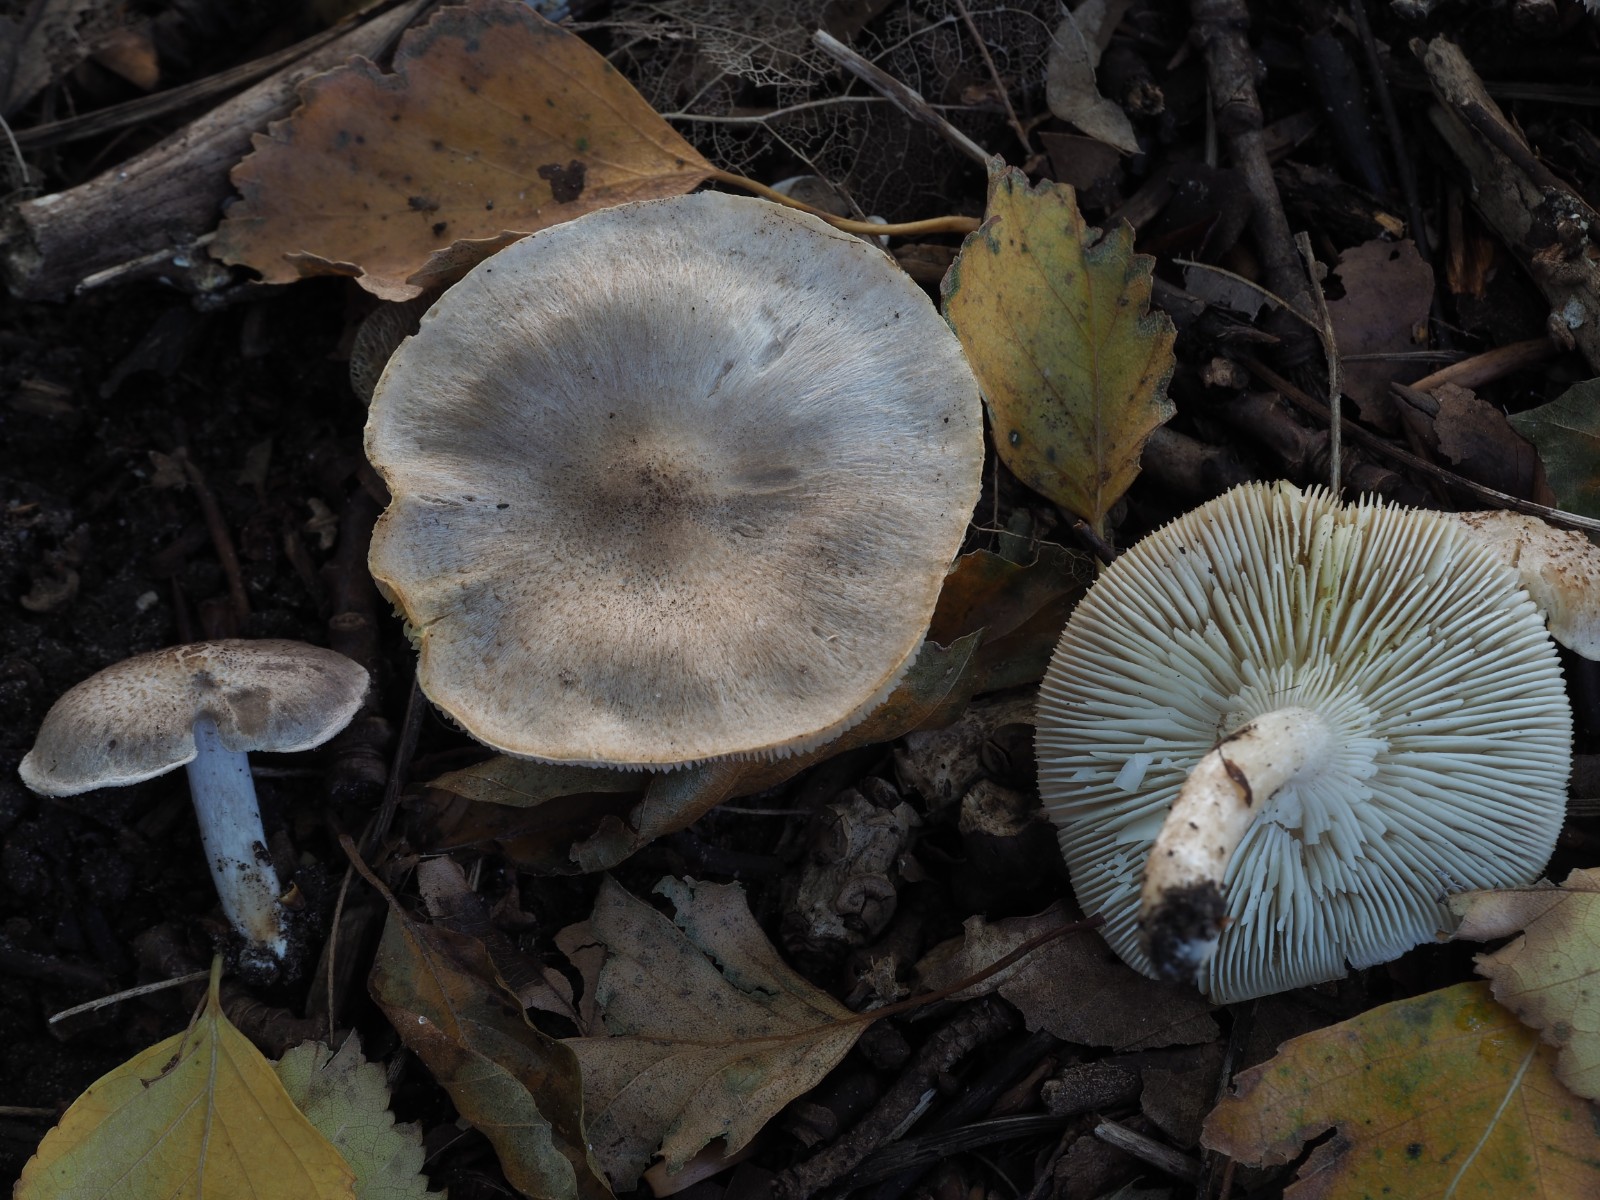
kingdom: Fungi
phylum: Basidiomycota
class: Agaricomycetes
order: Agaricales
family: Tricholomataceae
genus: Tricholoma
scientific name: Tricholoma scalpturatum
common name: gulplettet ridderhat
